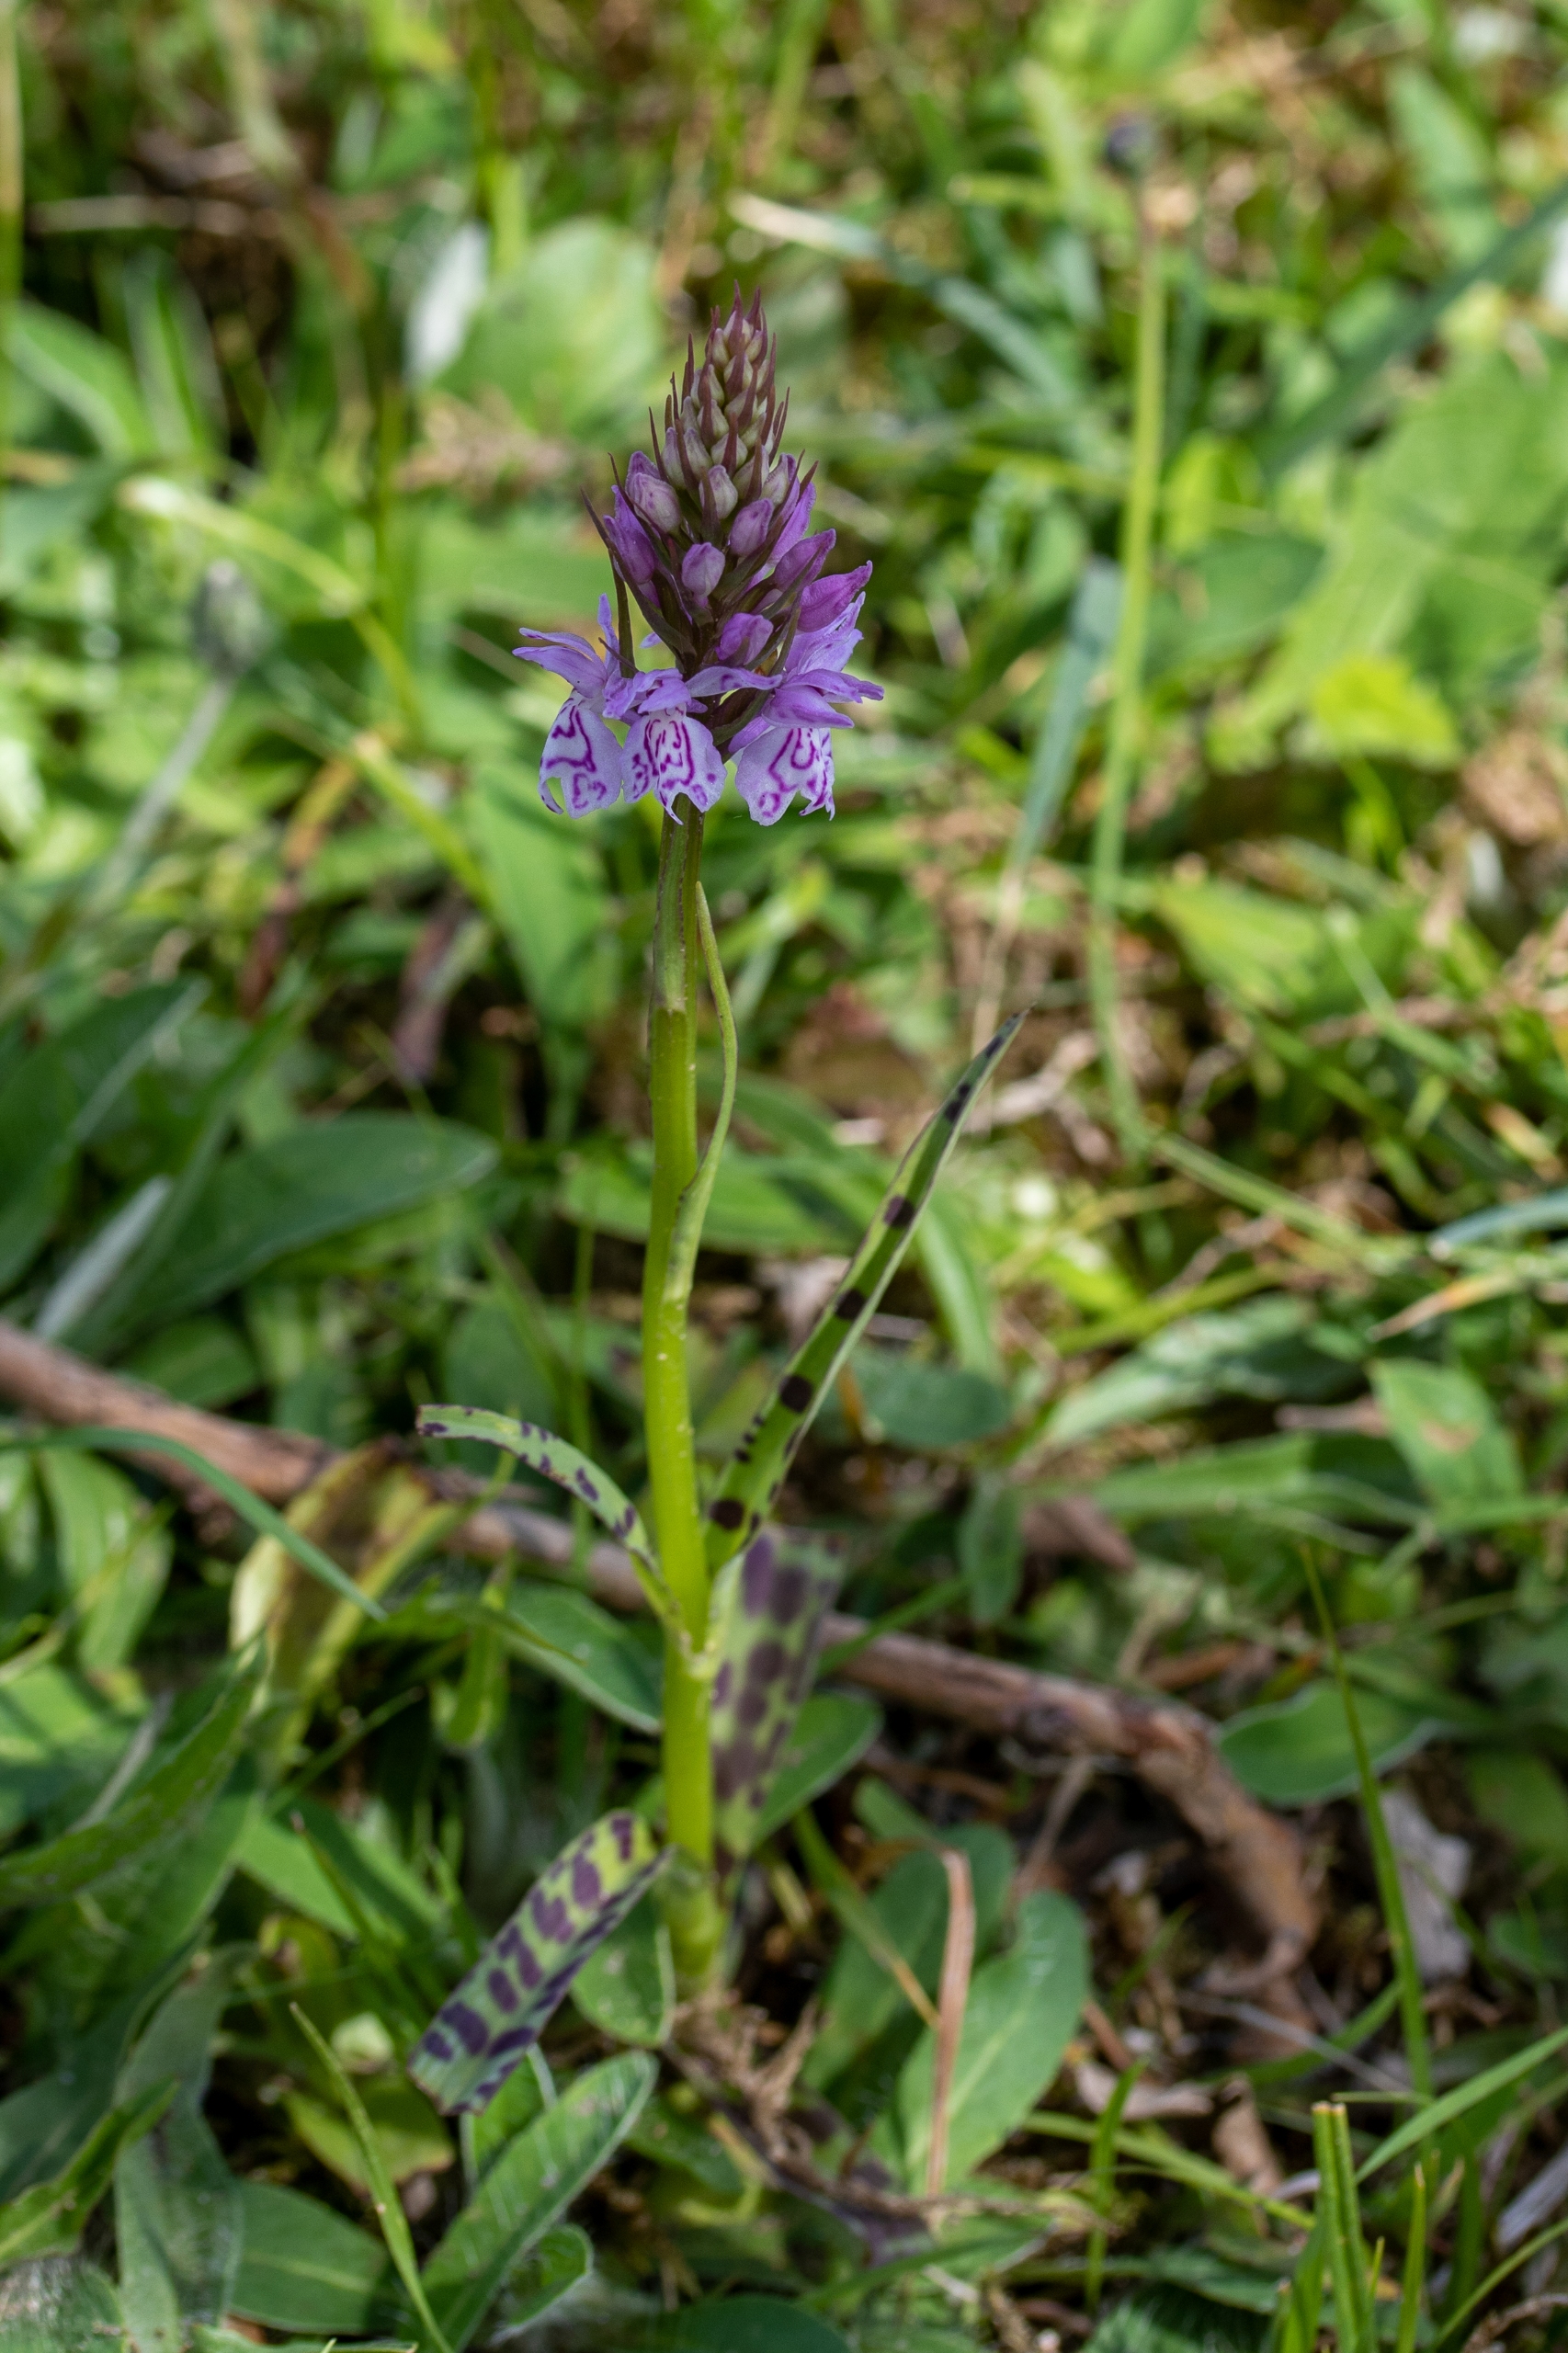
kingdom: Plantae
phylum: Tracheophyta
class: Liliopsida
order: Asparagales
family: Orchidaceae
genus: Dactylorhiza
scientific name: Dactylorhiza maculata
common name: Skov-gøgeurt
